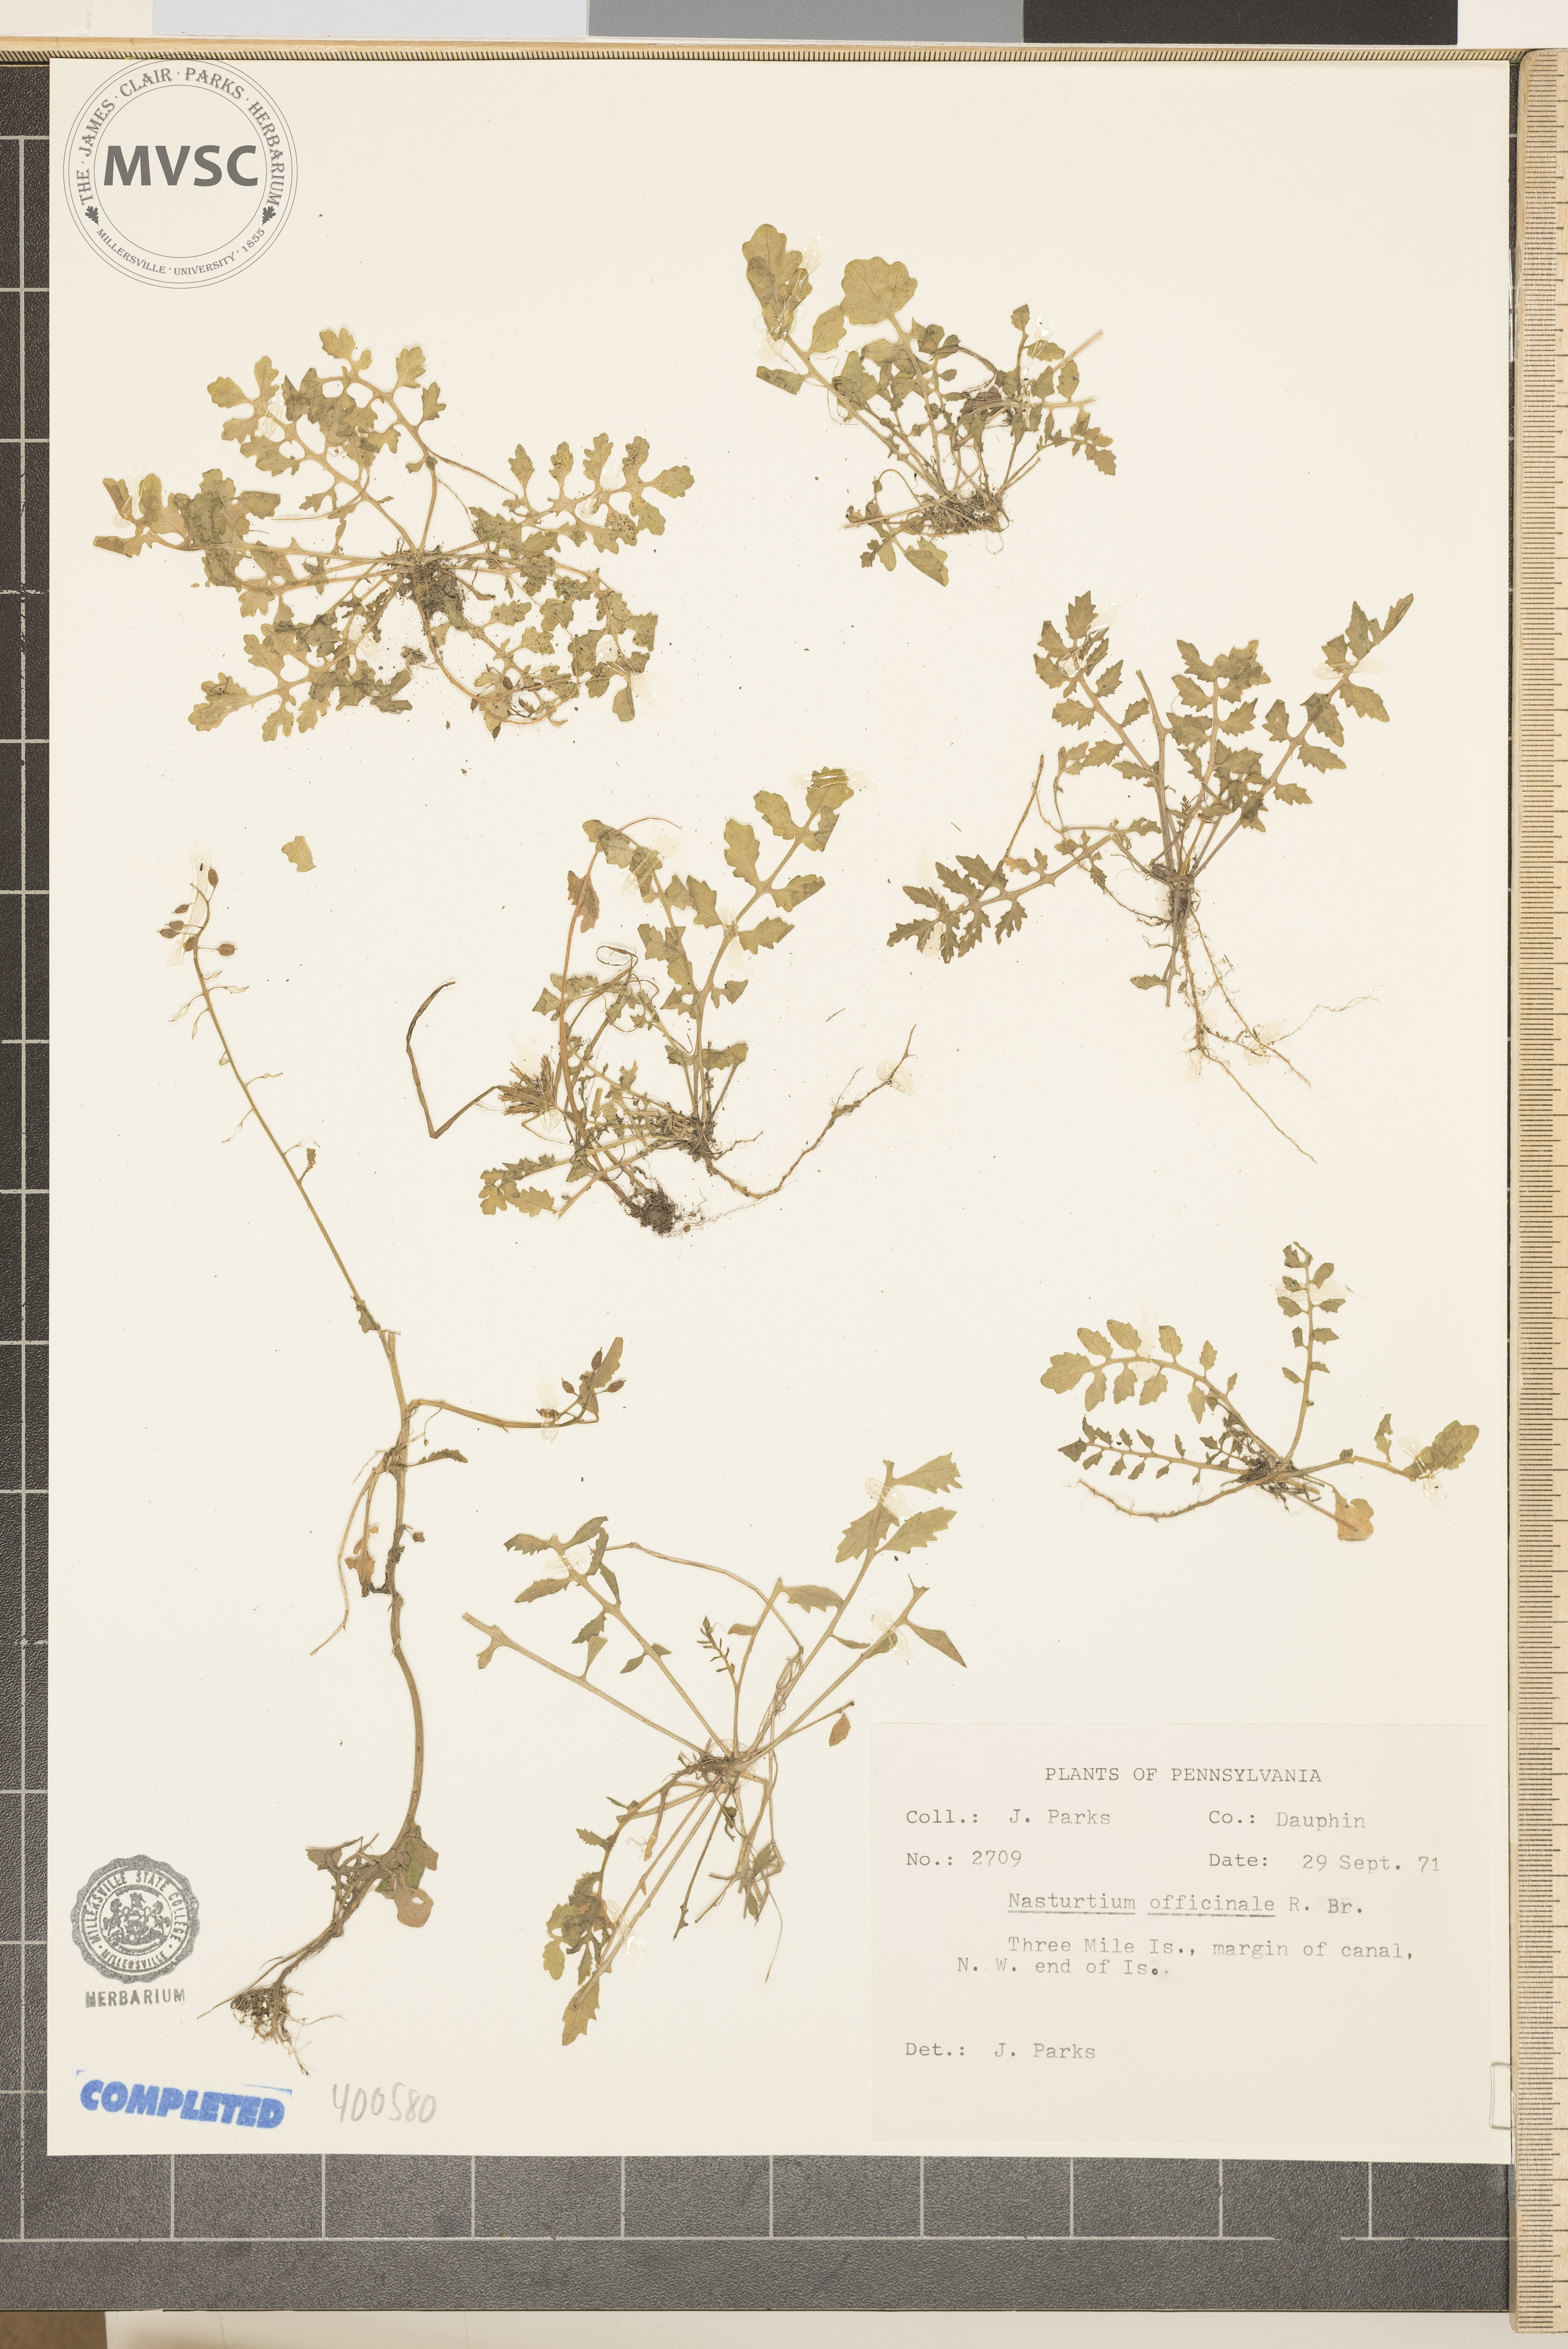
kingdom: Plantae
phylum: Tracheophyta
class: Magnoliopsida
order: Brassicales
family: Brassicaceae
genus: Nasturtium
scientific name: Nasturtium officinale
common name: Watercress
